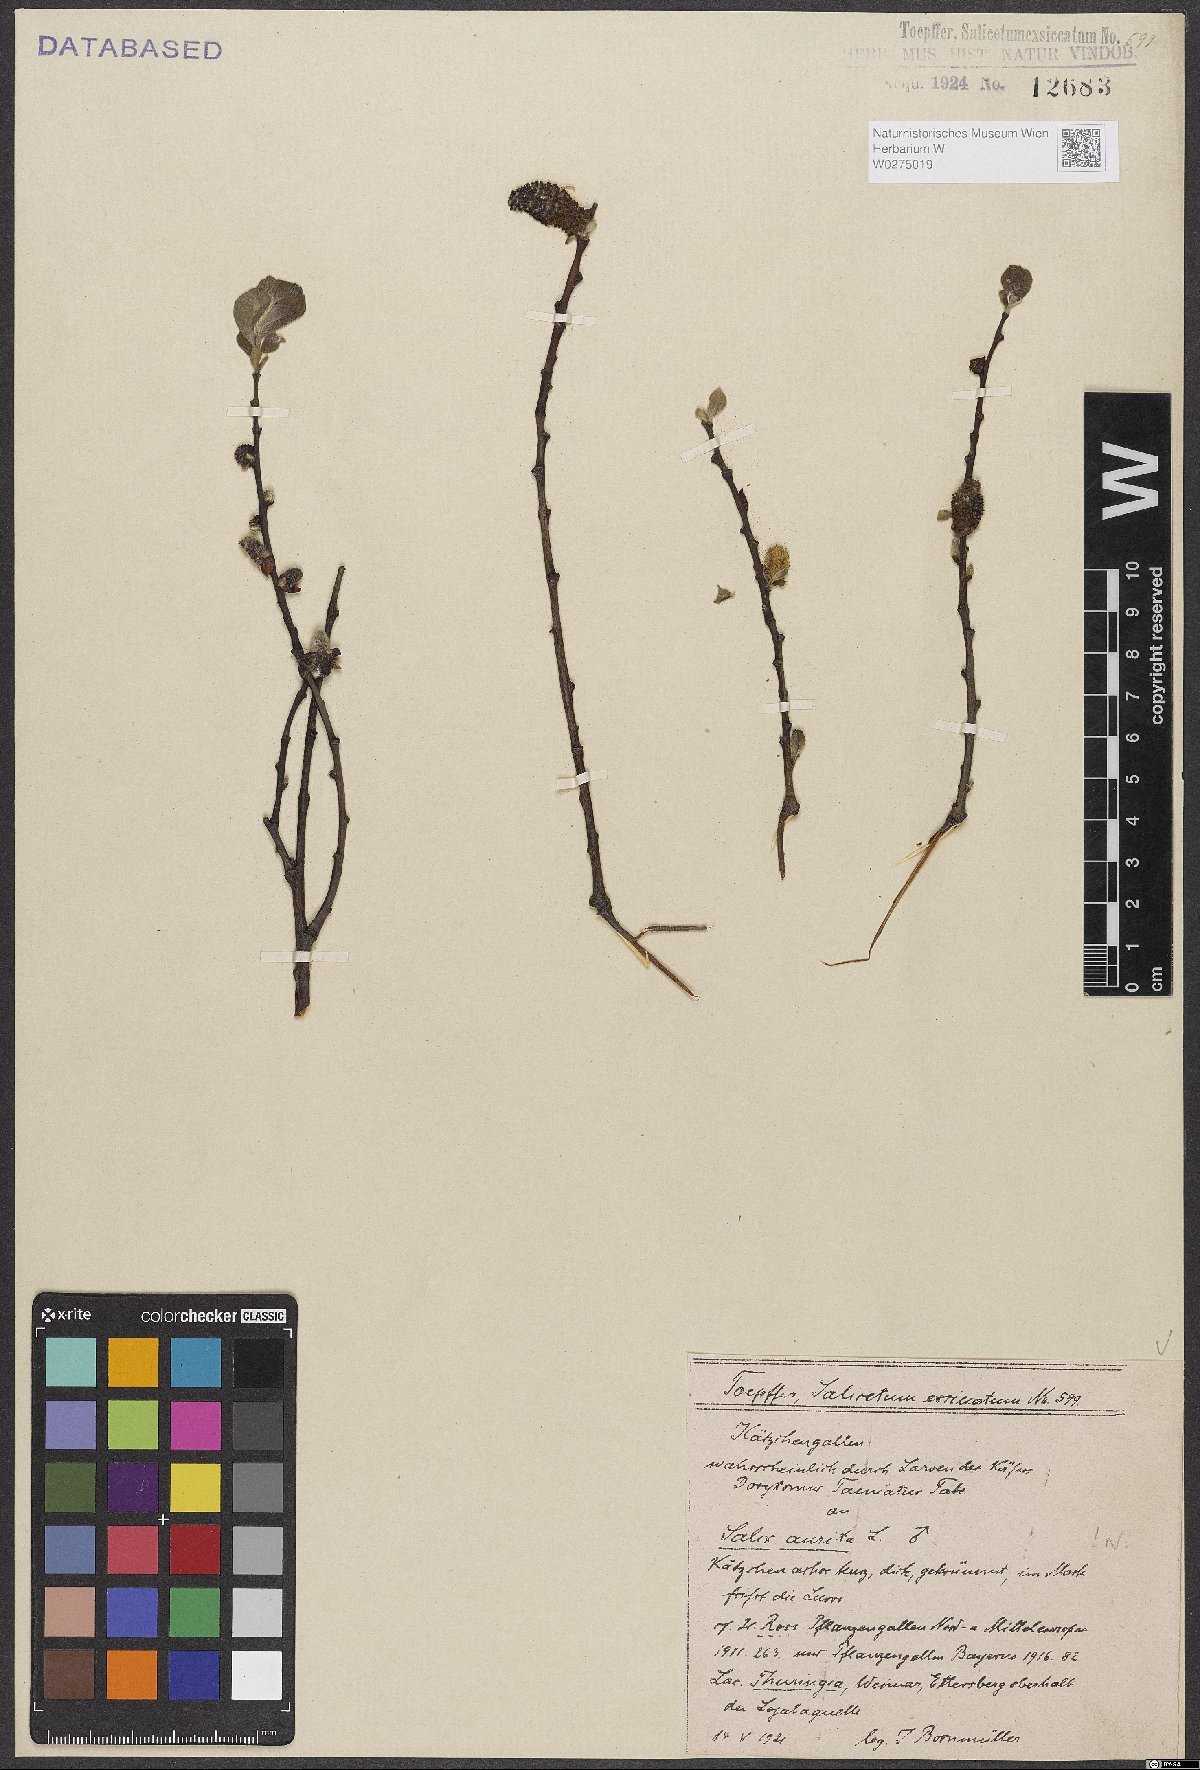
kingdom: Plantae
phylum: Tracheophyta
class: Magnoliopsida
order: Malpighiales
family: Salicaceae
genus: Salix
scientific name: Salix aurita
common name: Eared willow
